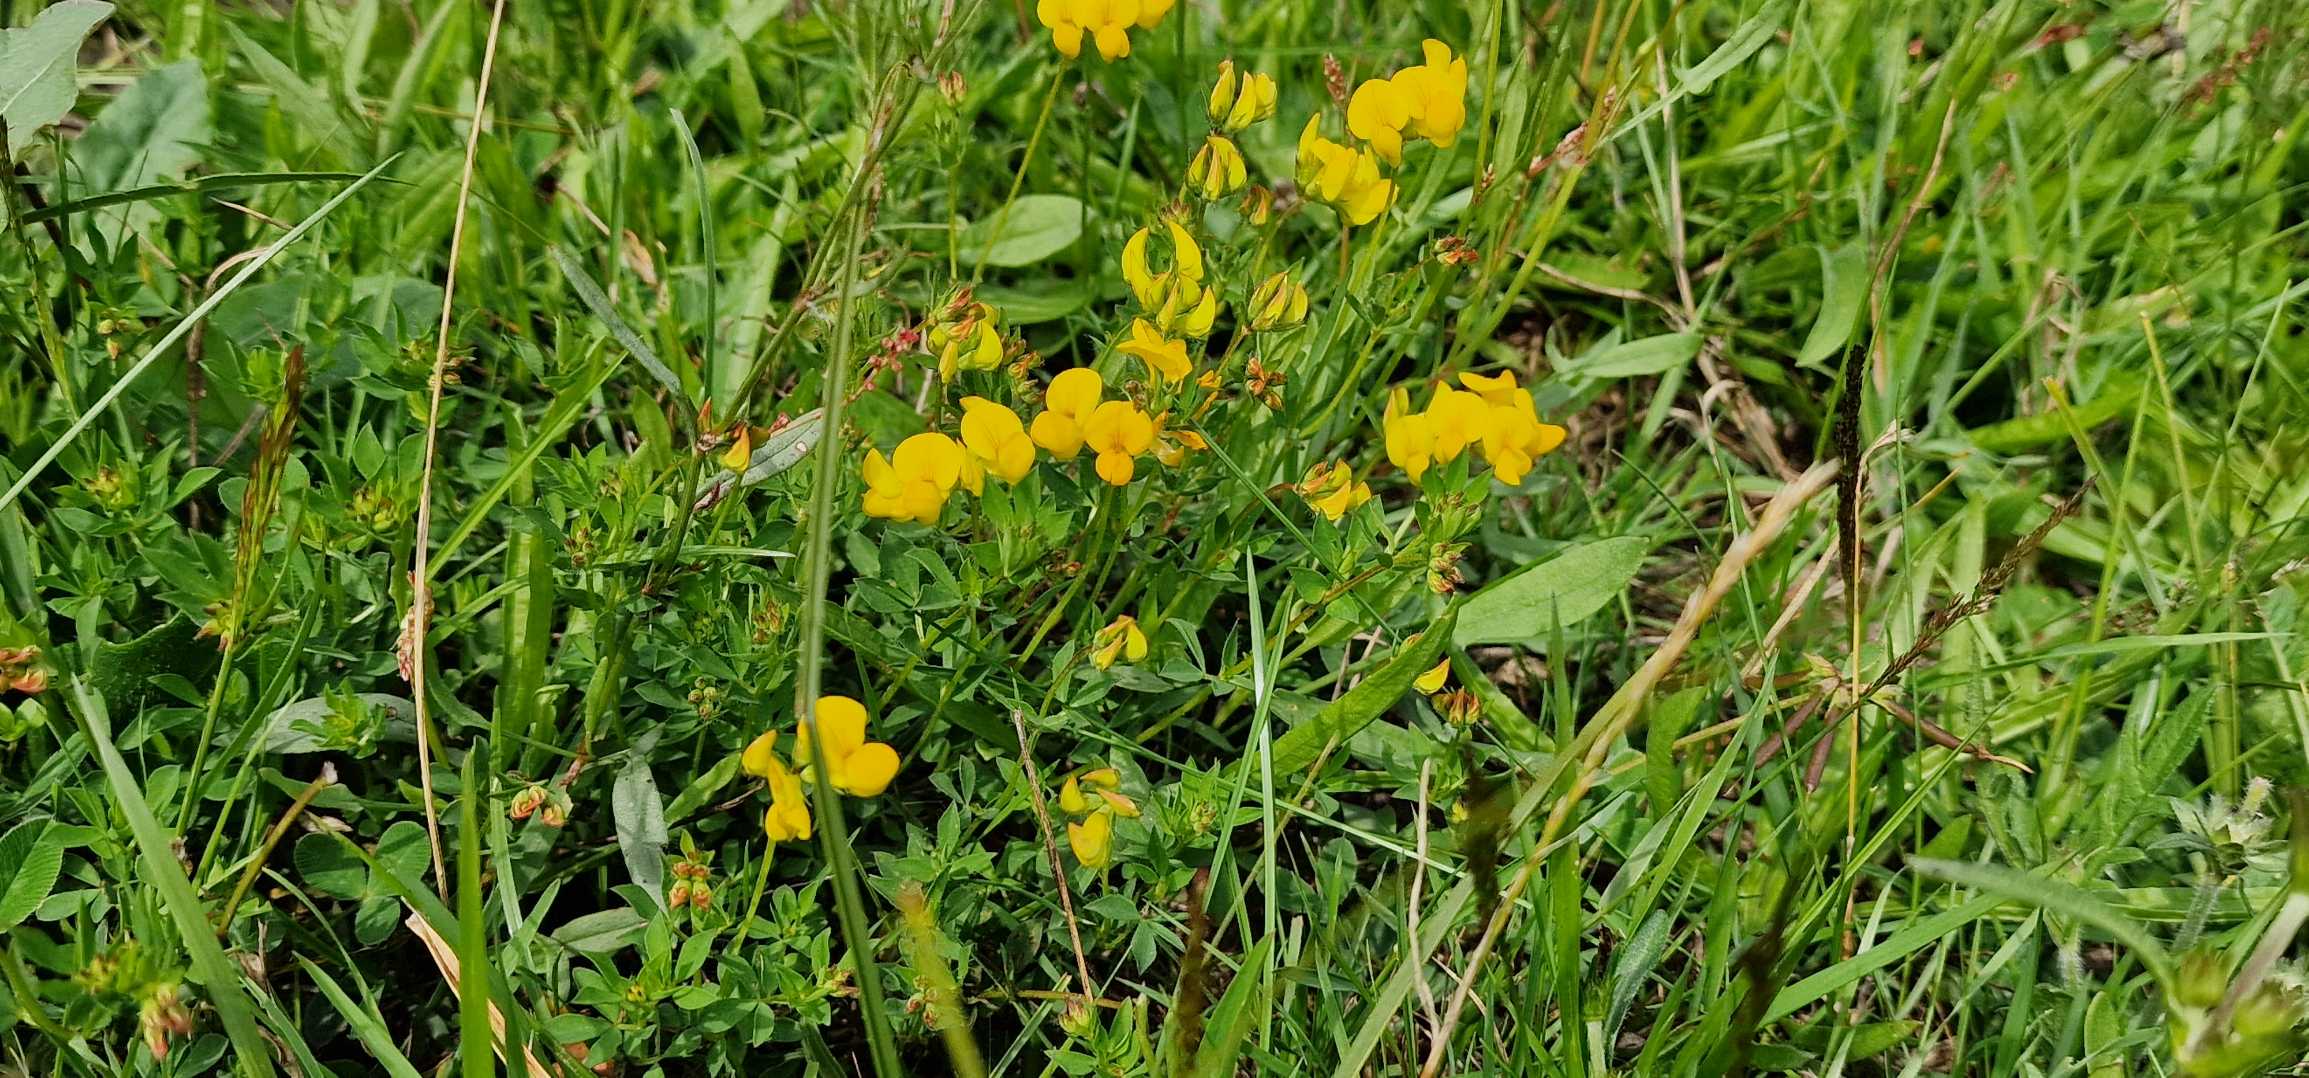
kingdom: Plantae
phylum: Tracheophyta
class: Magnoliopsida
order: Fabales
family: Fabaceae
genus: Lotus
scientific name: Lotus corniculatus
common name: Almindelig kællingetand
